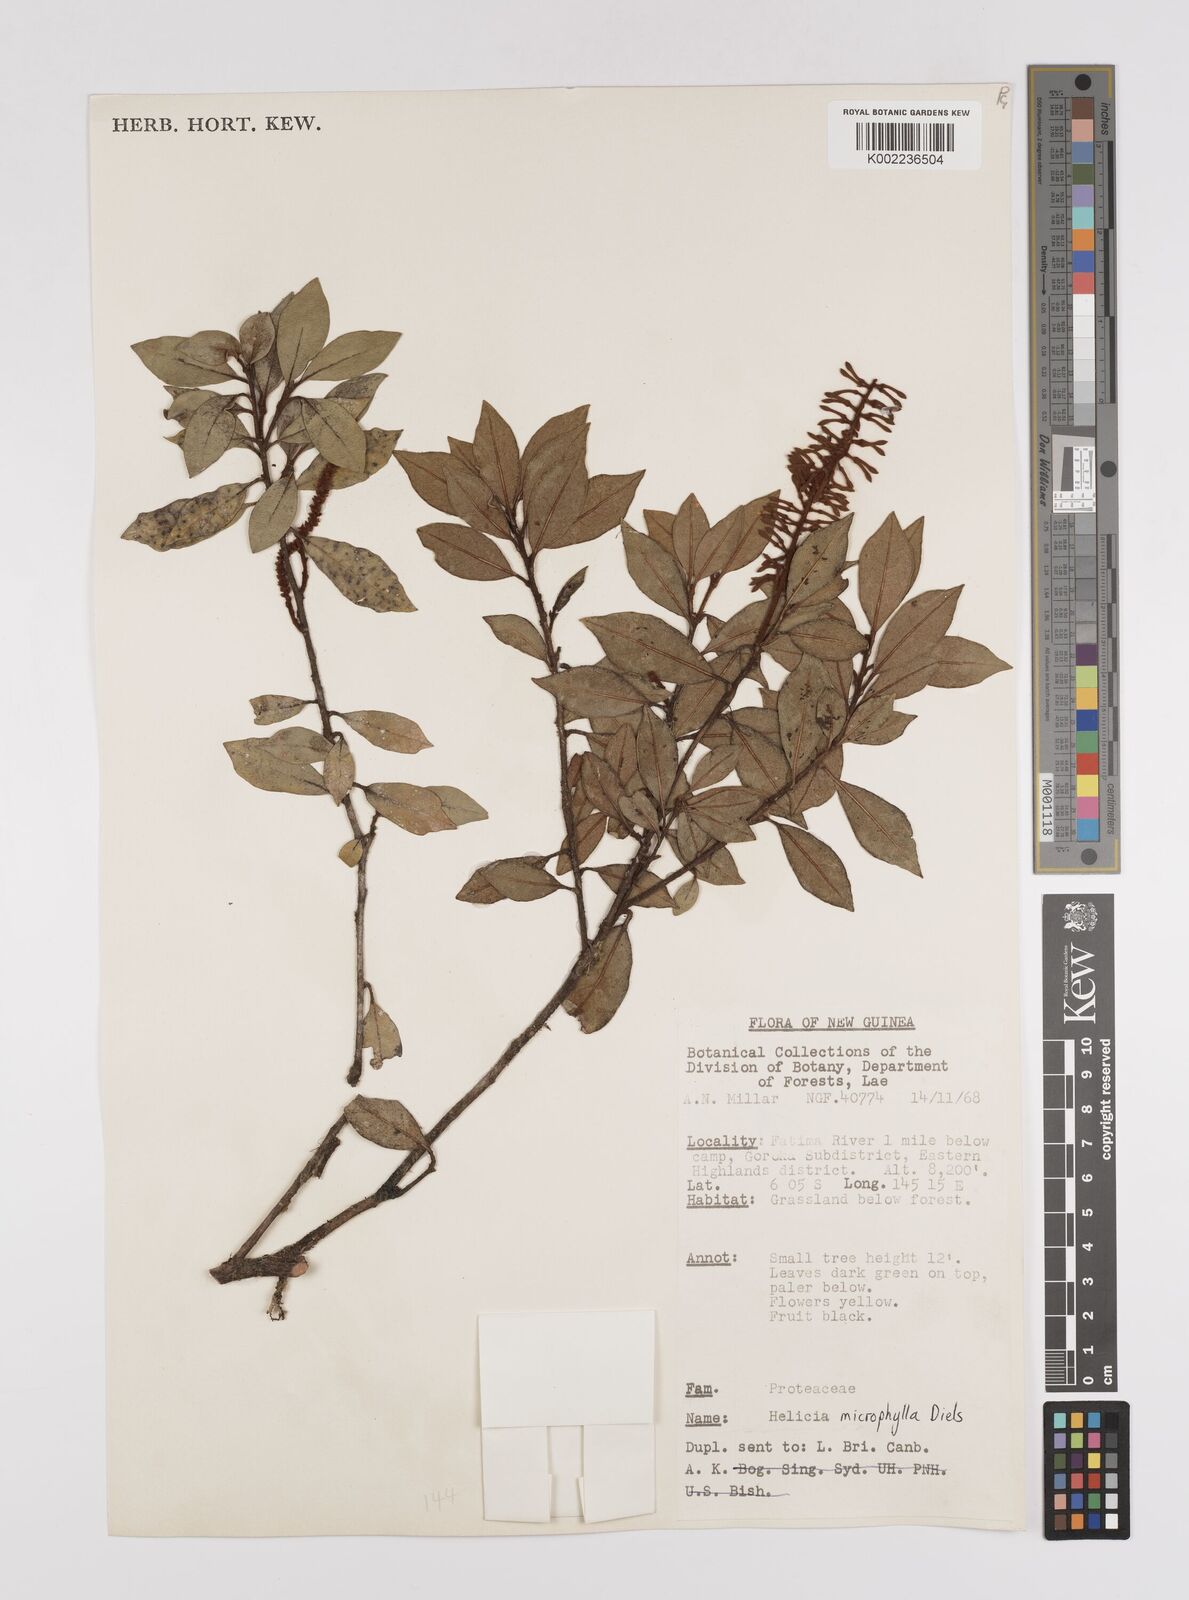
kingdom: Plantae
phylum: Tracheophyta
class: Magnoliopsida
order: Proteales
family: Proteaceae
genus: Helicia
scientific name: Helicia microphylla
